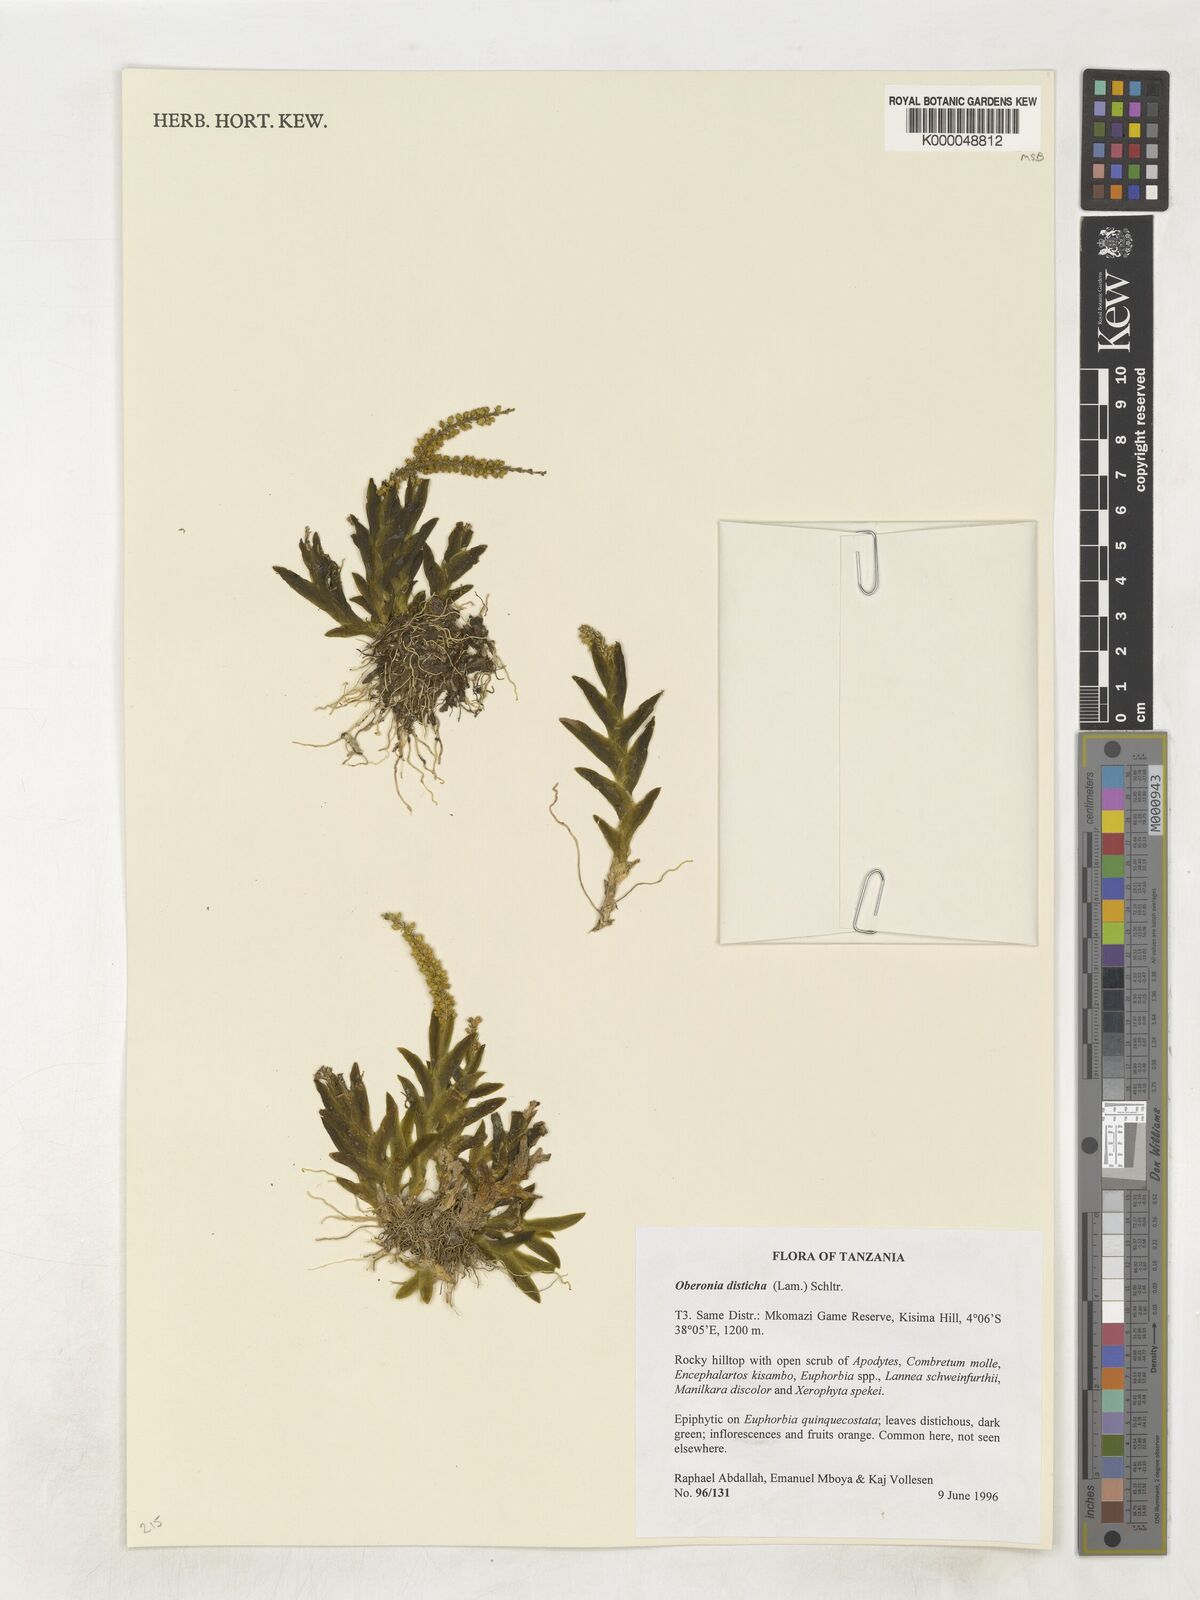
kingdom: Plantae
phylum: Tracheophyta
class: Liliopsida
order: Asparagales
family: Orchidaceae
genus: Oberonia
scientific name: Oberonia disticha
